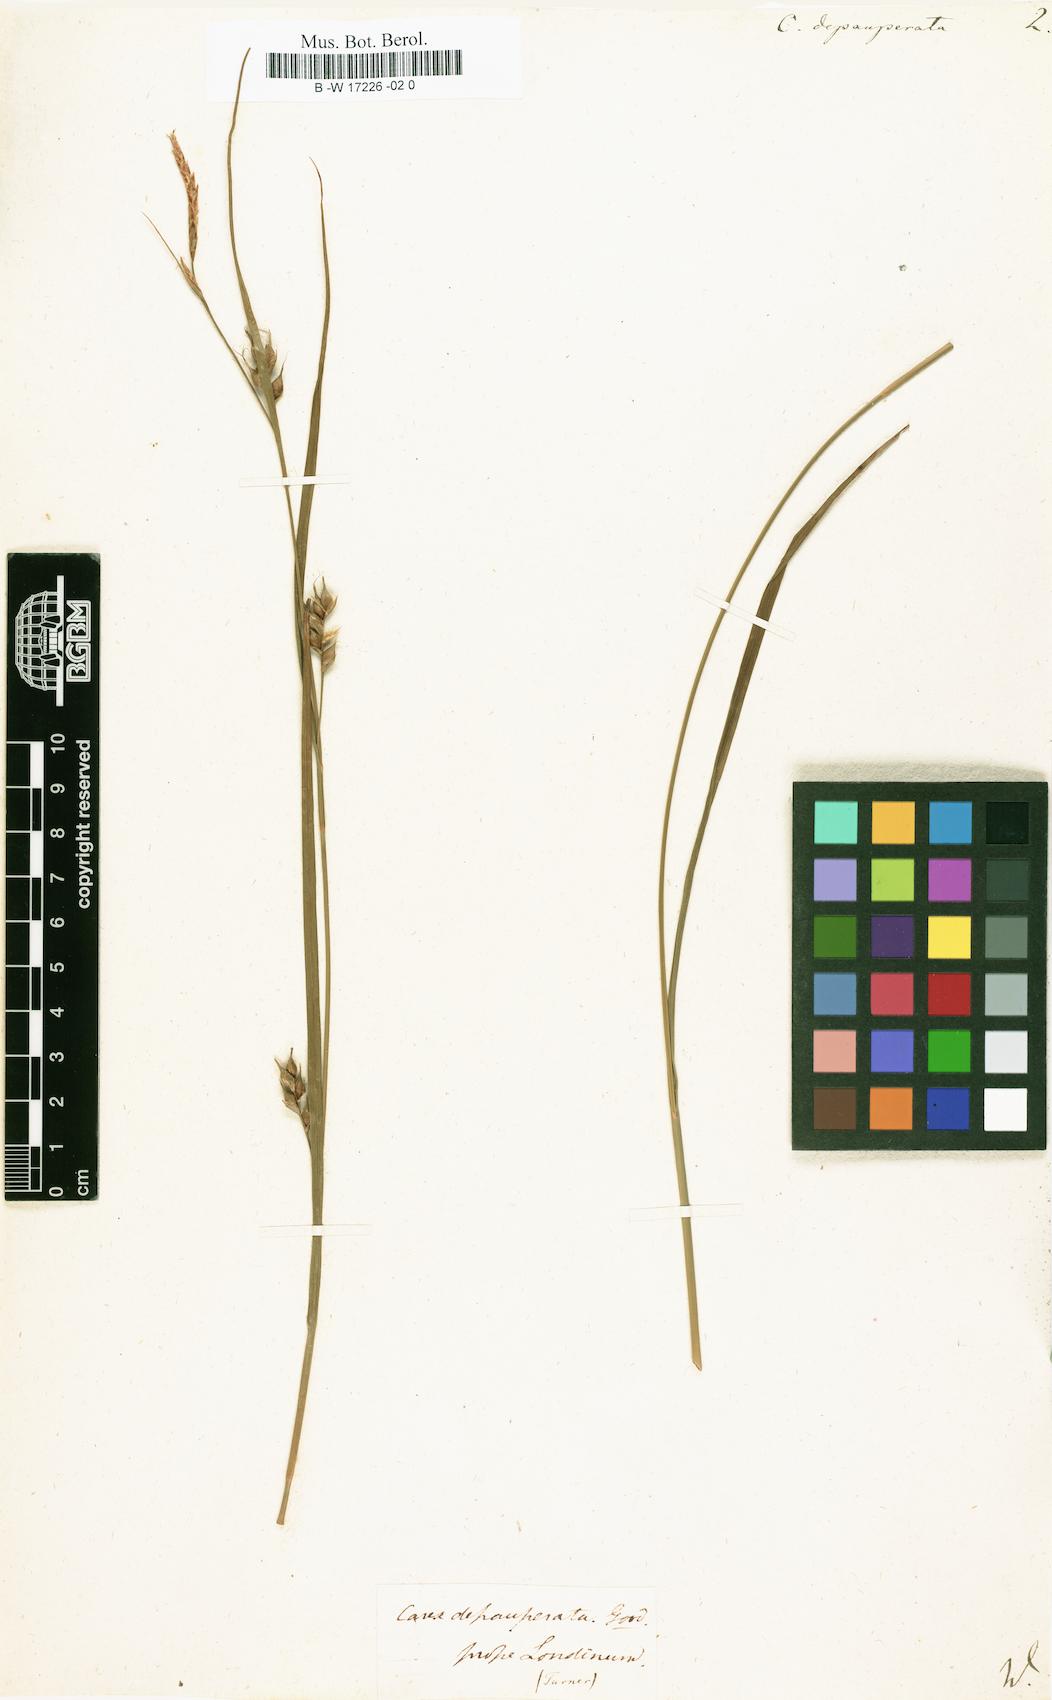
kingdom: Plantae
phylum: Tracheophyta
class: Liliopsida
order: Poales
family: Cyperaceae
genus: Carex
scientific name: Carex depauperata
